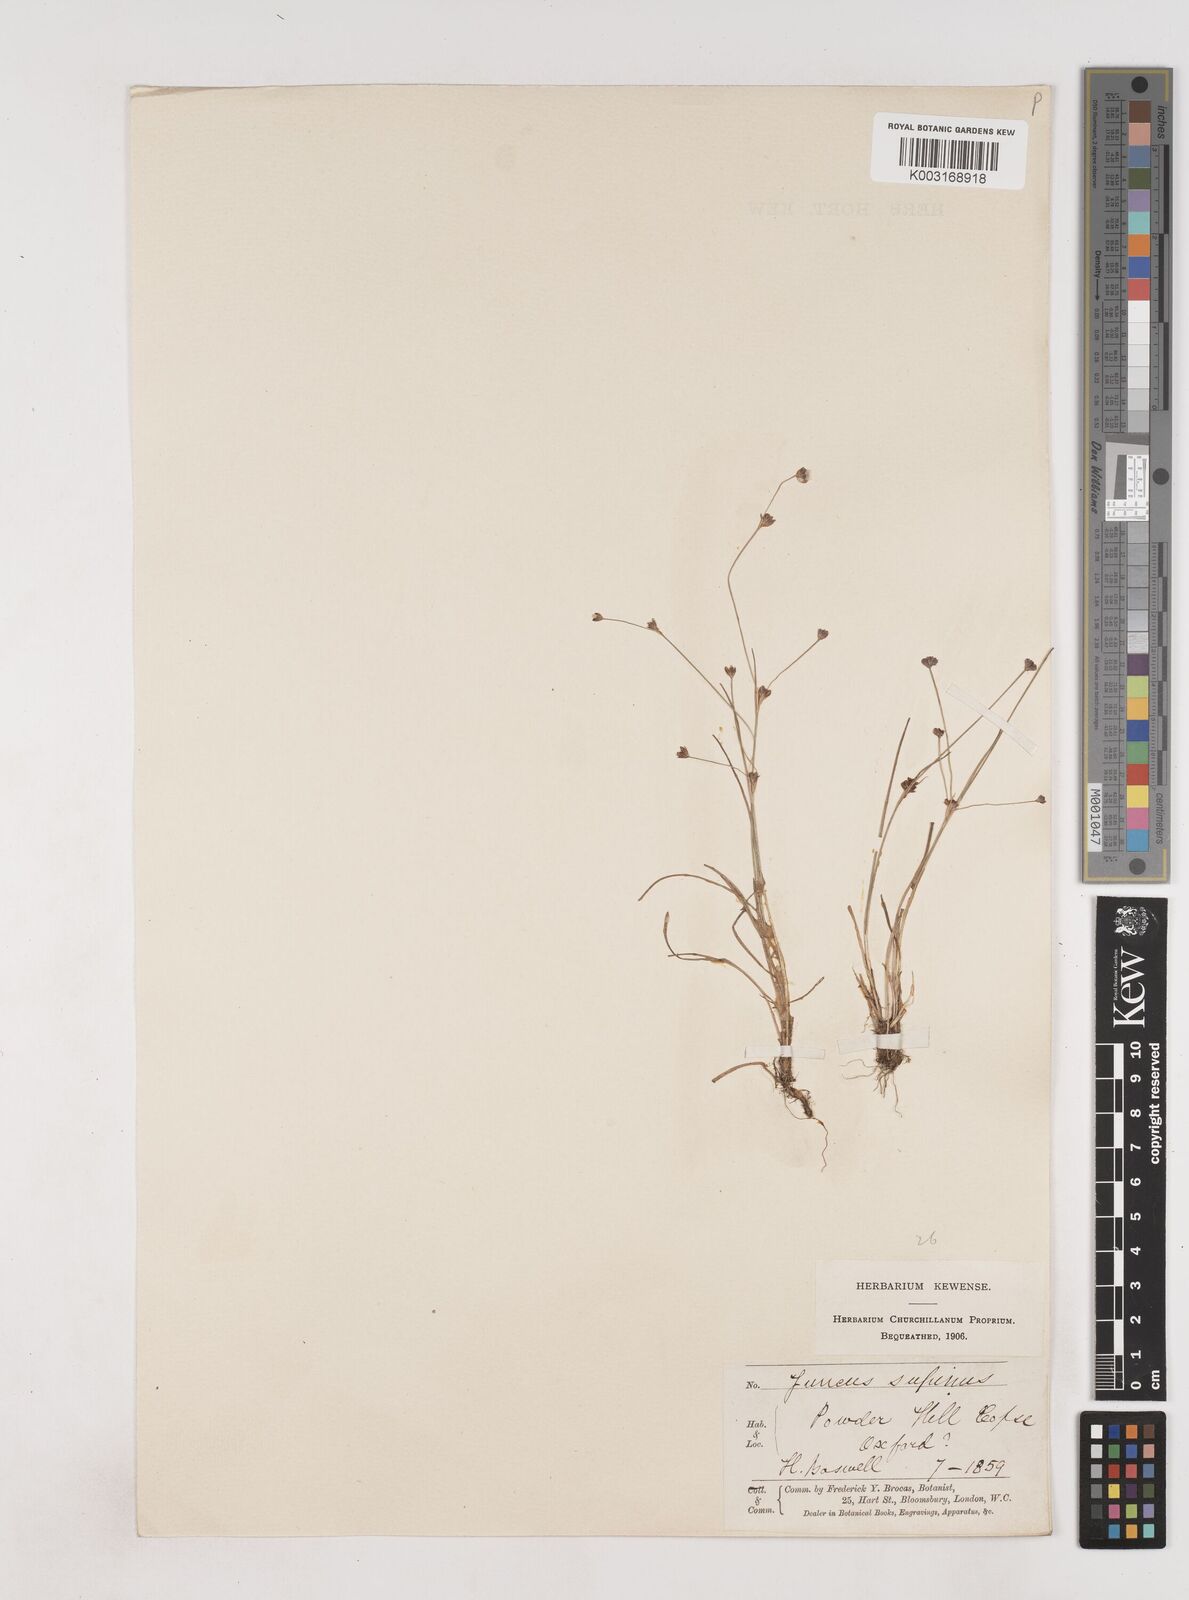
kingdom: Plantae
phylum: Tracheophyta
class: Liliopsida
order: Poales
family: Juncaceae
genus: Juncus
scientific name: Juncus bulbosus
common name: Bulbous rush
